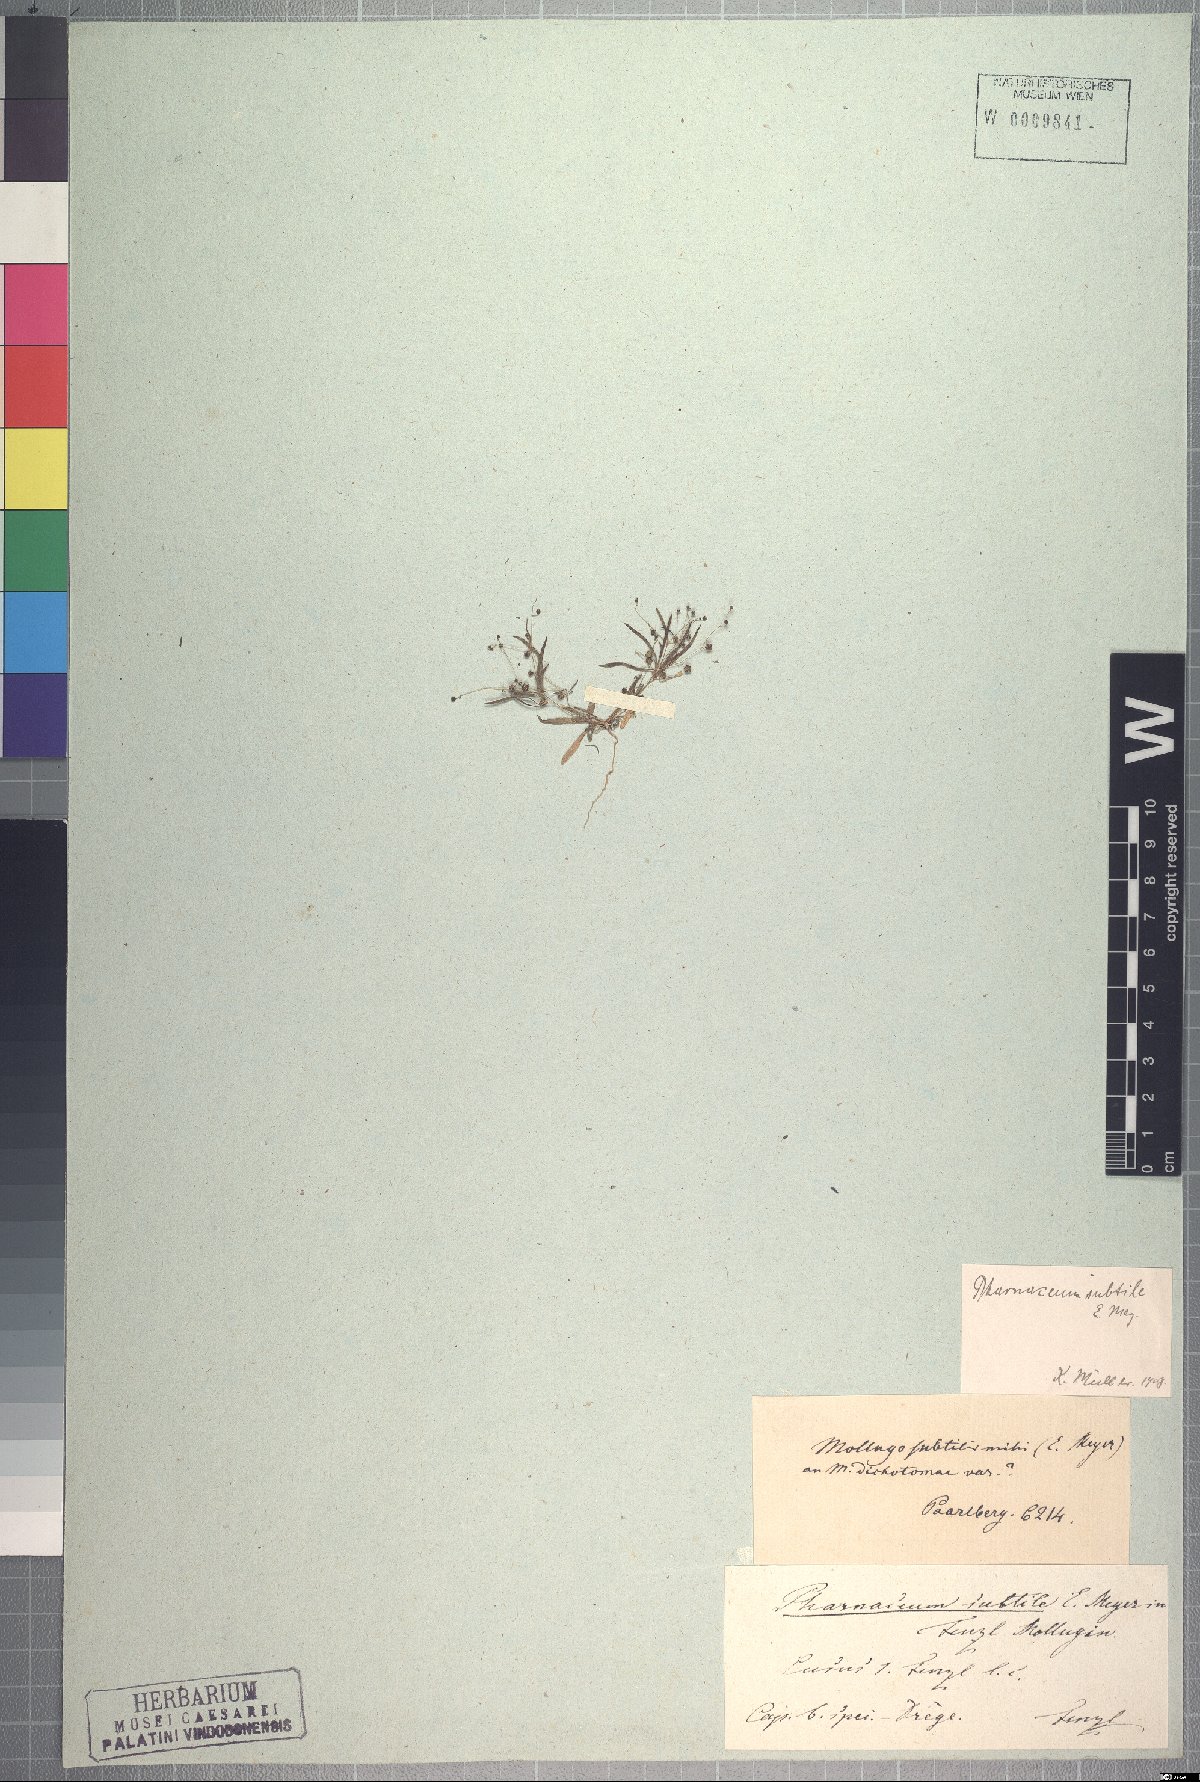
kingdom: Plantae
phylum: Tracheophyta
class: Magnoliopsida
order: Caryophyllales
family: Molluginaceae
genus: Pharnaceum
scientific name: Pharnaceum subtile
